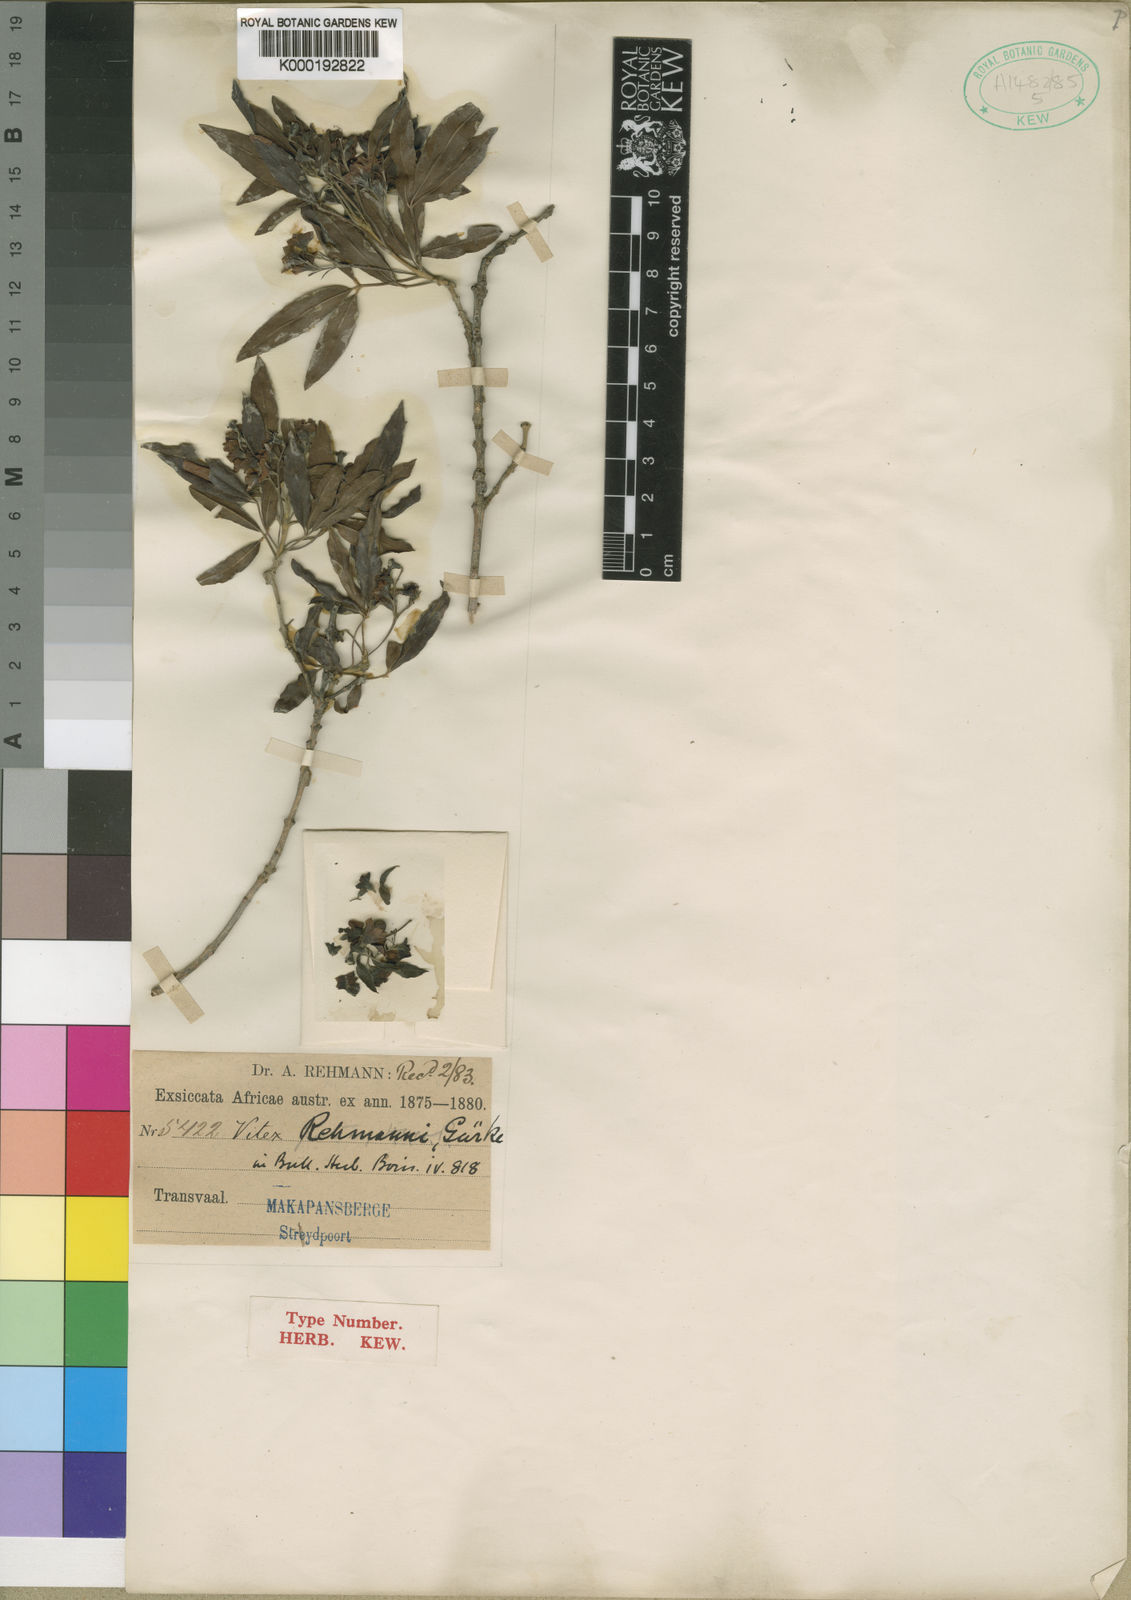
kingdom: Plantae
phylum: Tracheophyta
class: Magnoliopsida
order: Lamiales
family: Lamiaceae
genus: Vitex
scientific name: Vitex
